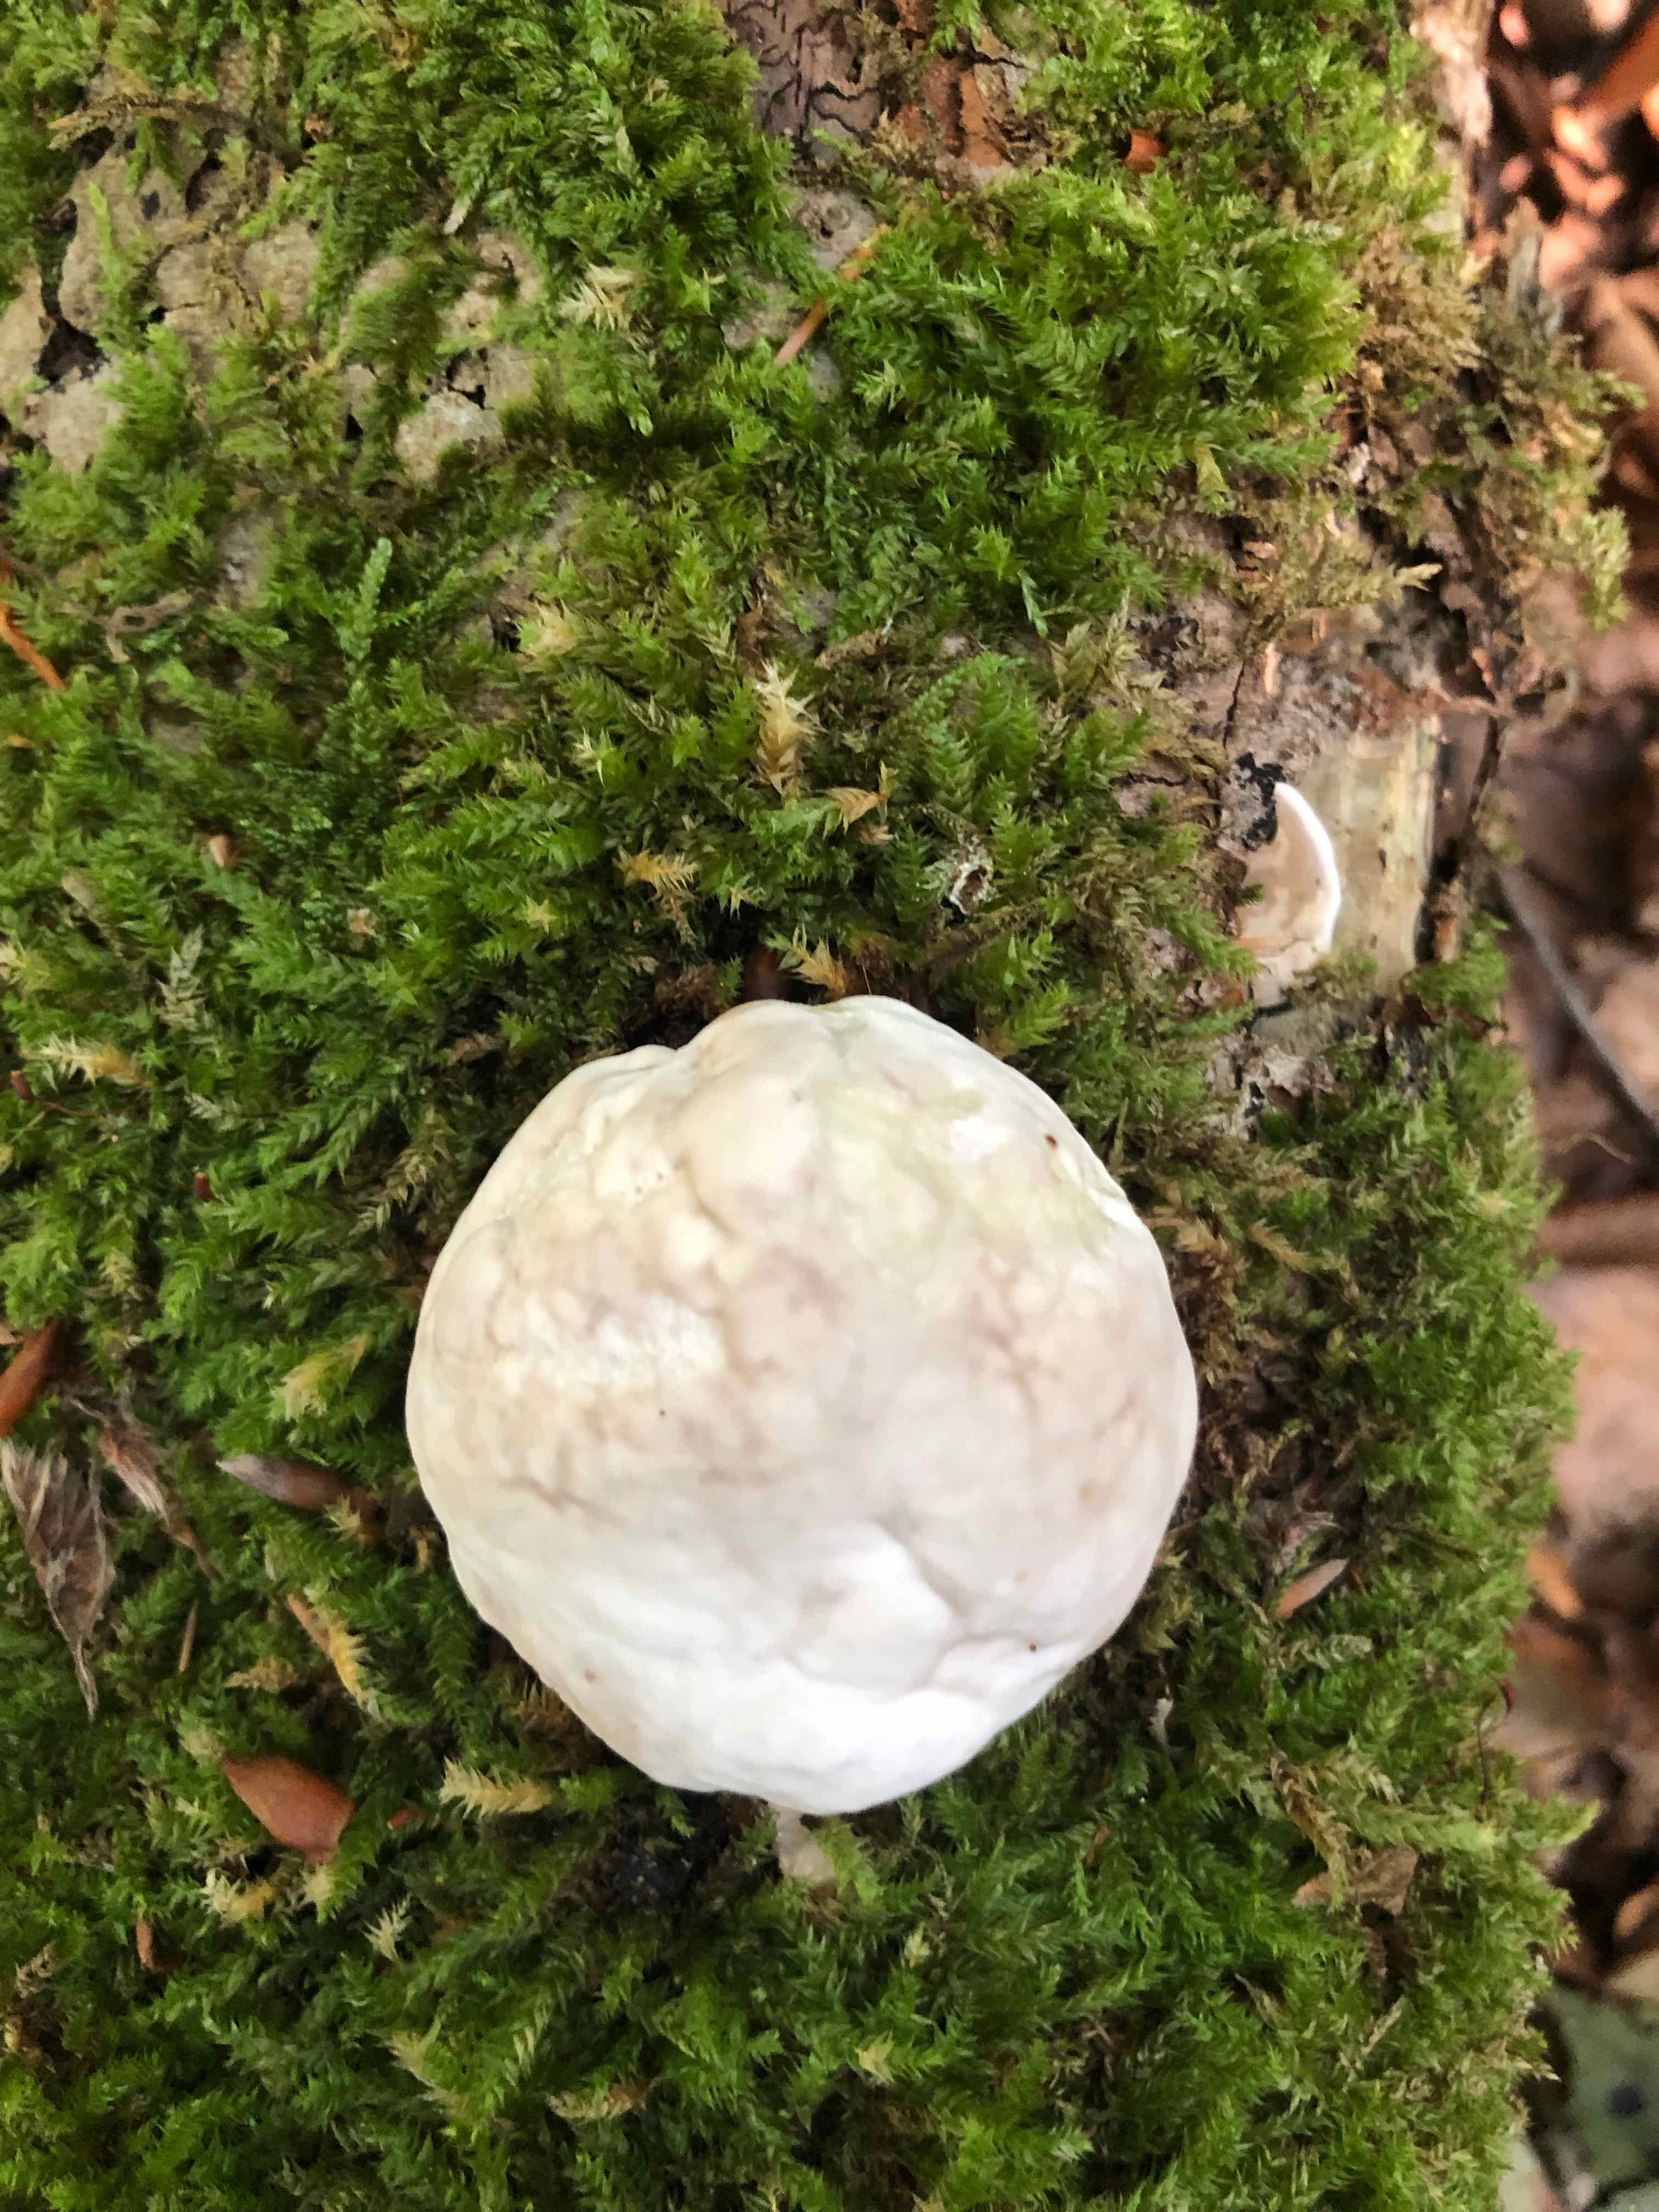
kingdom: Fungi
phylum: Basidiomycota
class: Agaricomycetes
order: Polyporales
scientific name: Polyporales
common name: poresvampordenen
